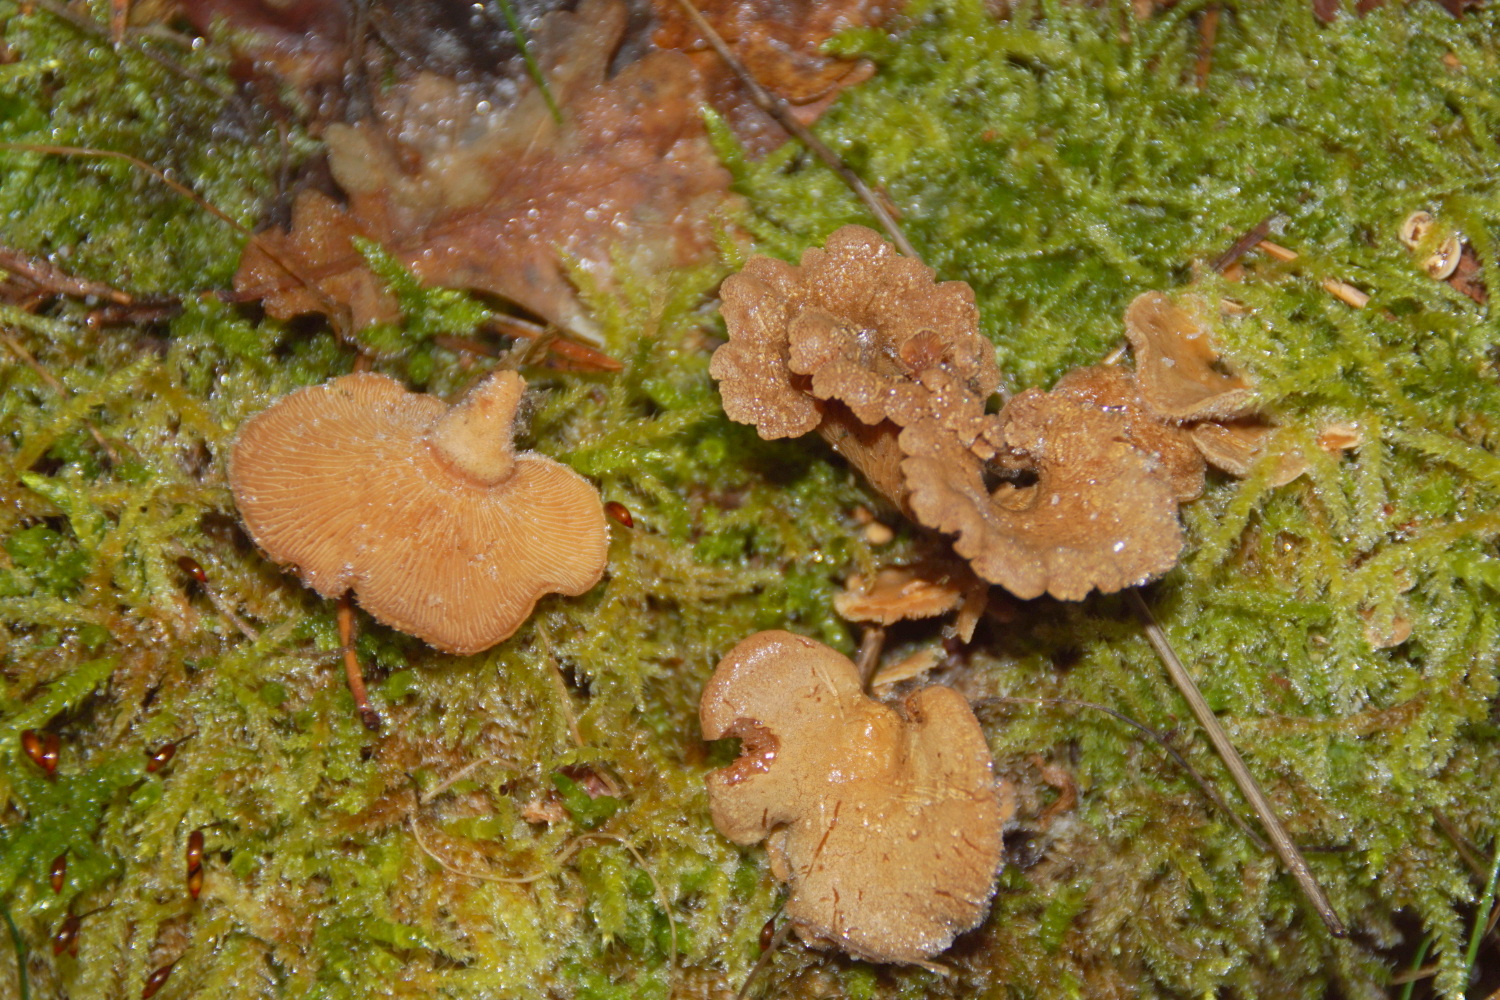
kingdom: Fungi
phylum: Basidiomycota
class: Agaricomycetes
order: Agaricales
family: Mycenaceae
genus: Panellus
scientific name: Panellus stipticus
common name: kliddet epaulethat
